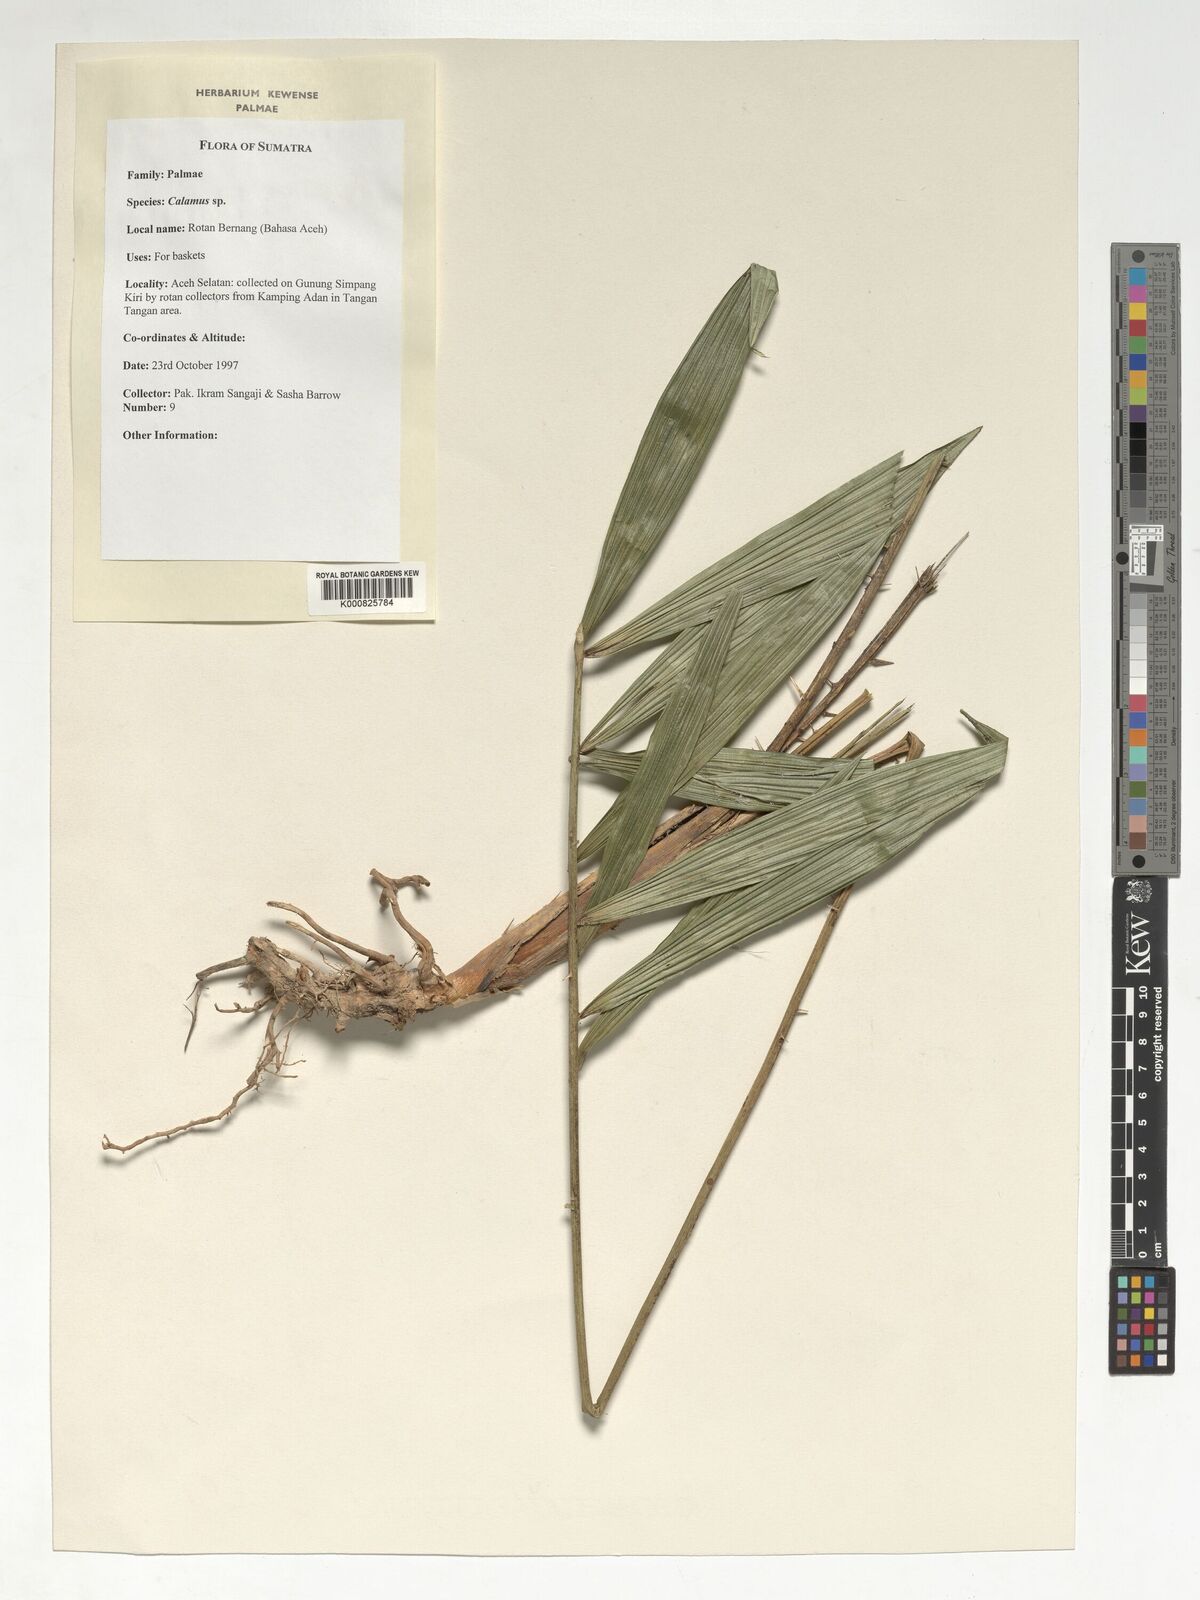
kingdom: Plantae
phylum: Tracheophyta
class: Liliopsida
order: Arecales
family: Arecaceae
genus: Calamus
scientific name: Calamus
